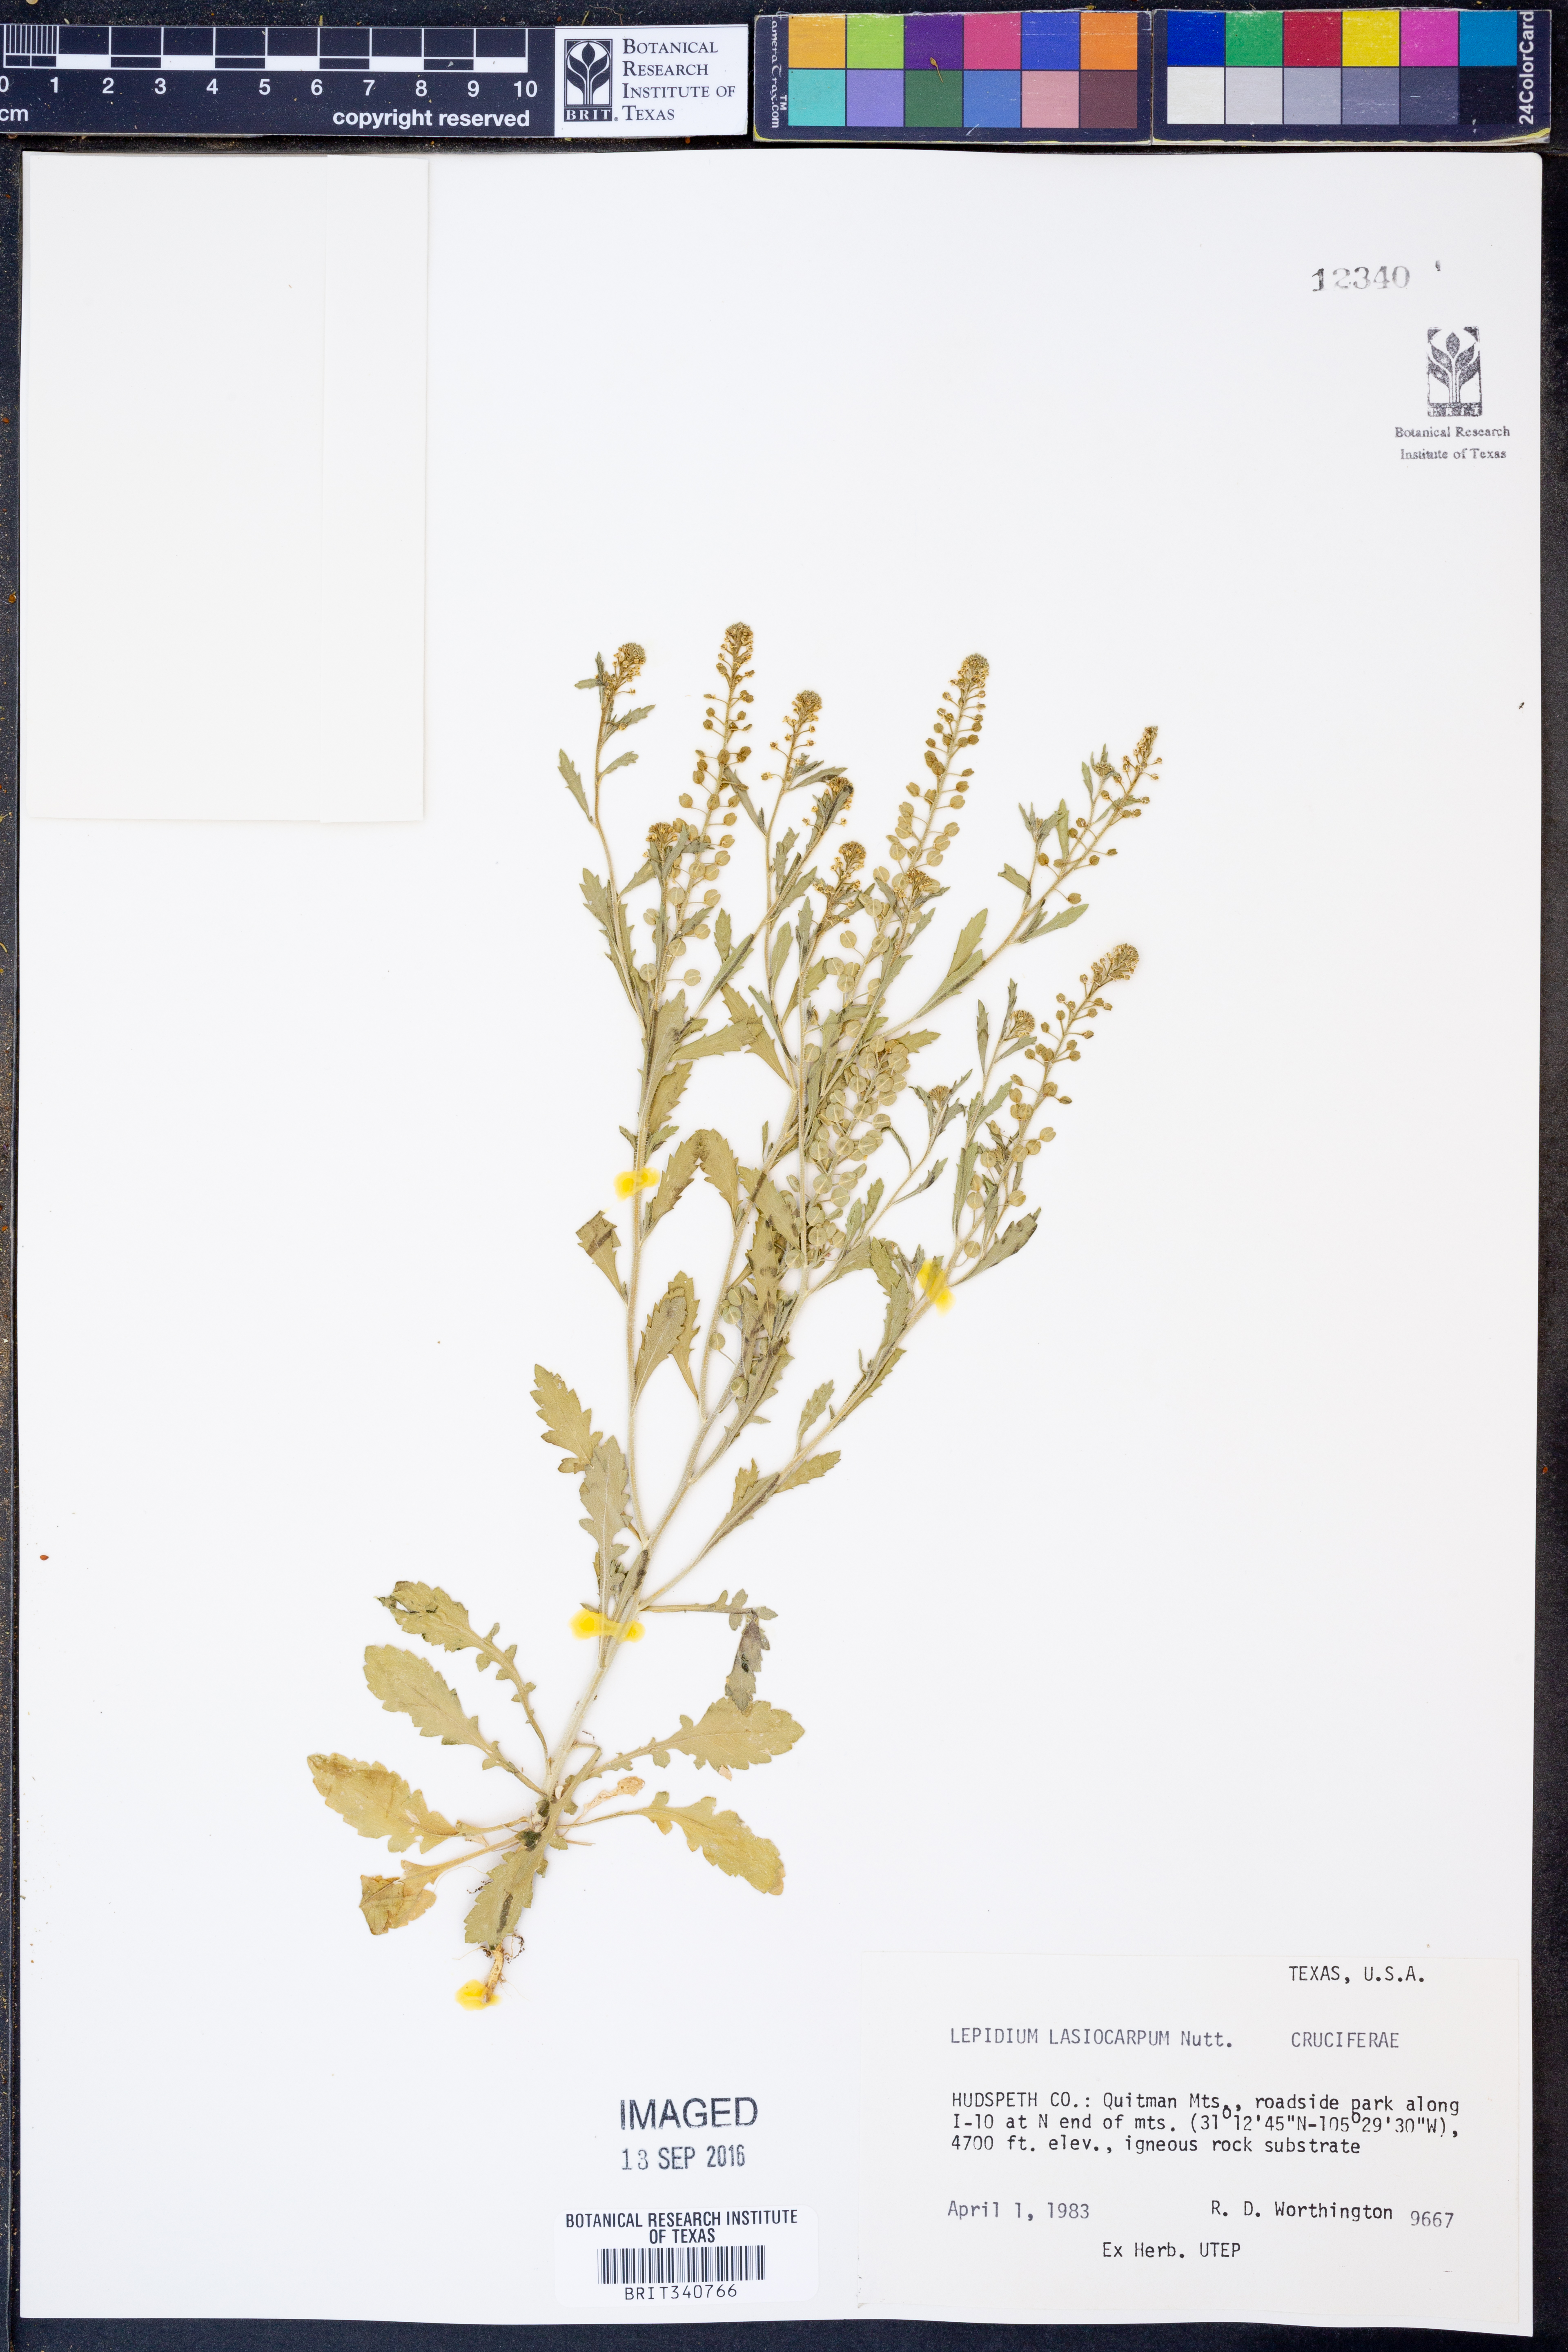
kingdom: Plantae
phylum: Tracheophyta
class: Magnoliopsida
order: Brassicales
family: Brassicaceae
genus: Lepidium
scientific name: Lepidium lasiocarpum
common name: Hairy-pod pepperwort
